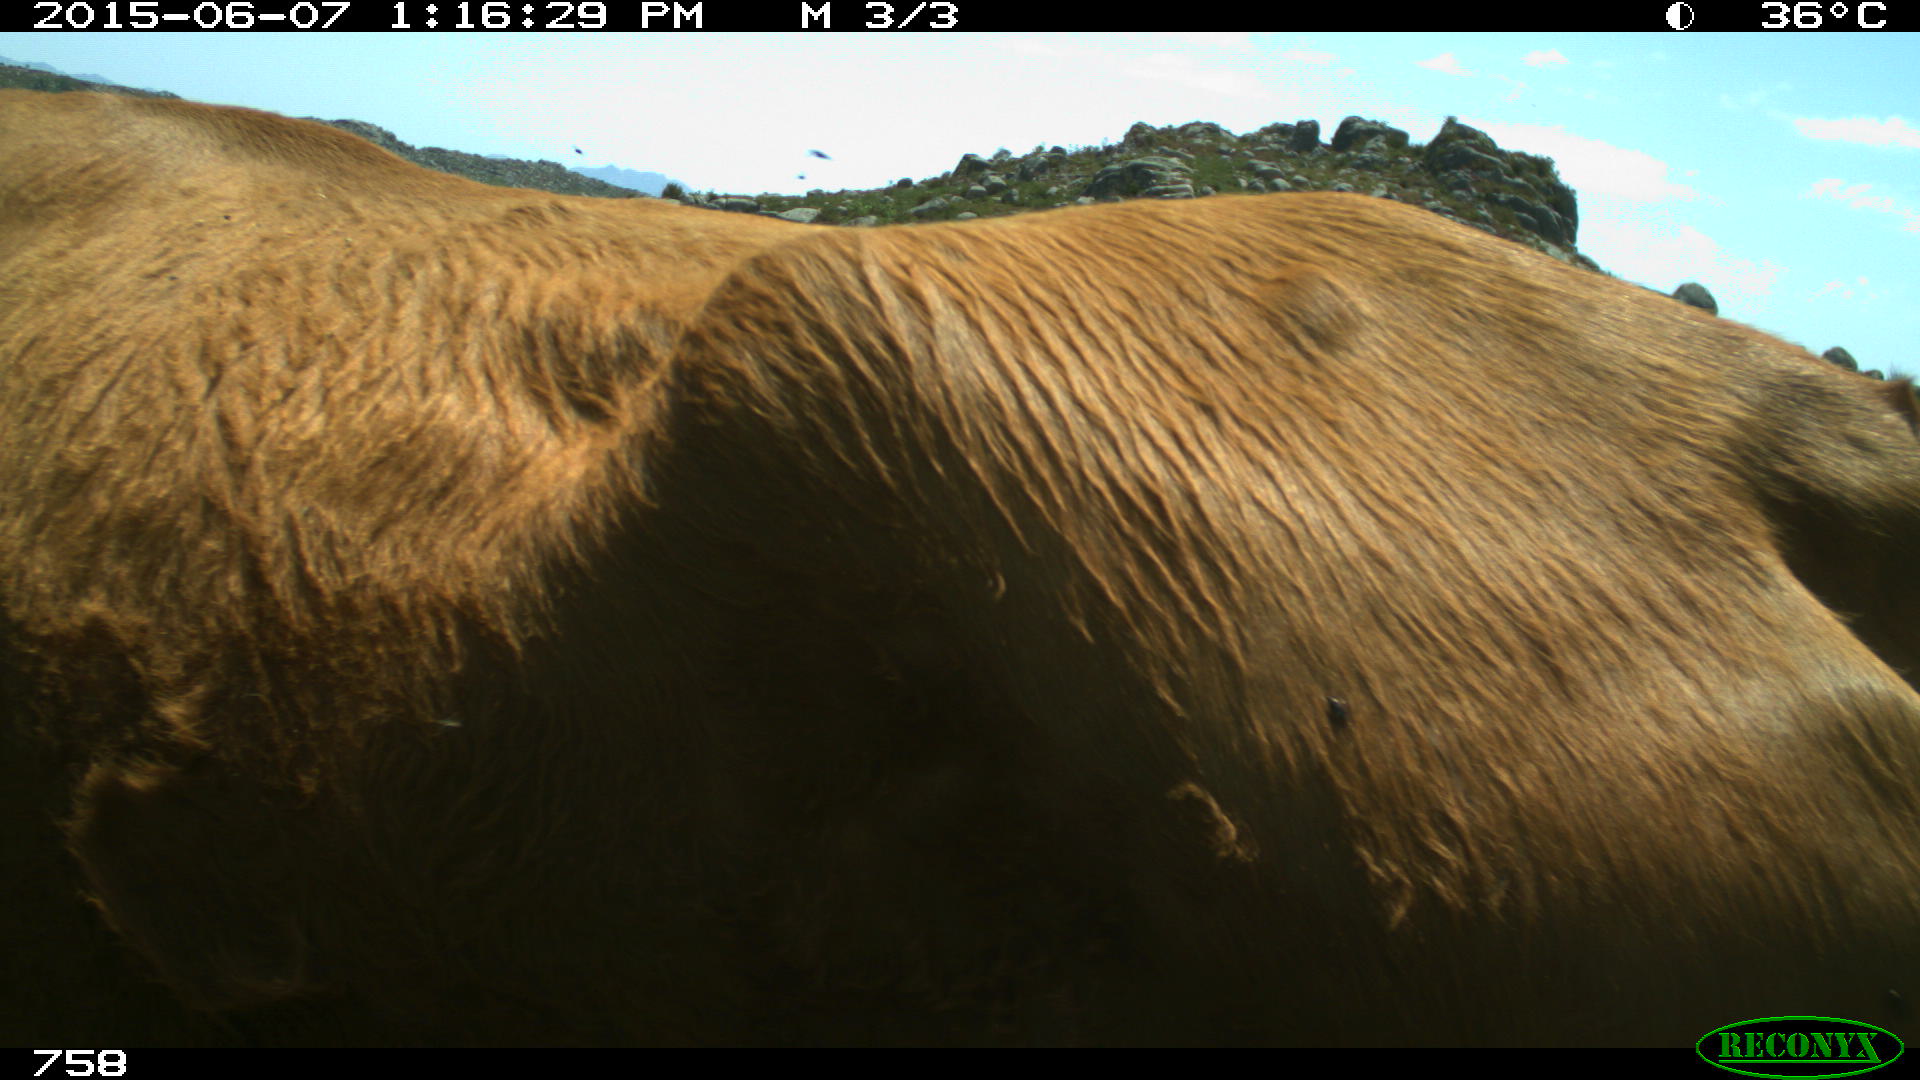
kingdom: Animalia
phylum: Chordata
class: Mammalia
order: Artiodactyla
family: Bovidae
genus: Bos
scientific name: Bos taurus
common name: Domesticated cattle
